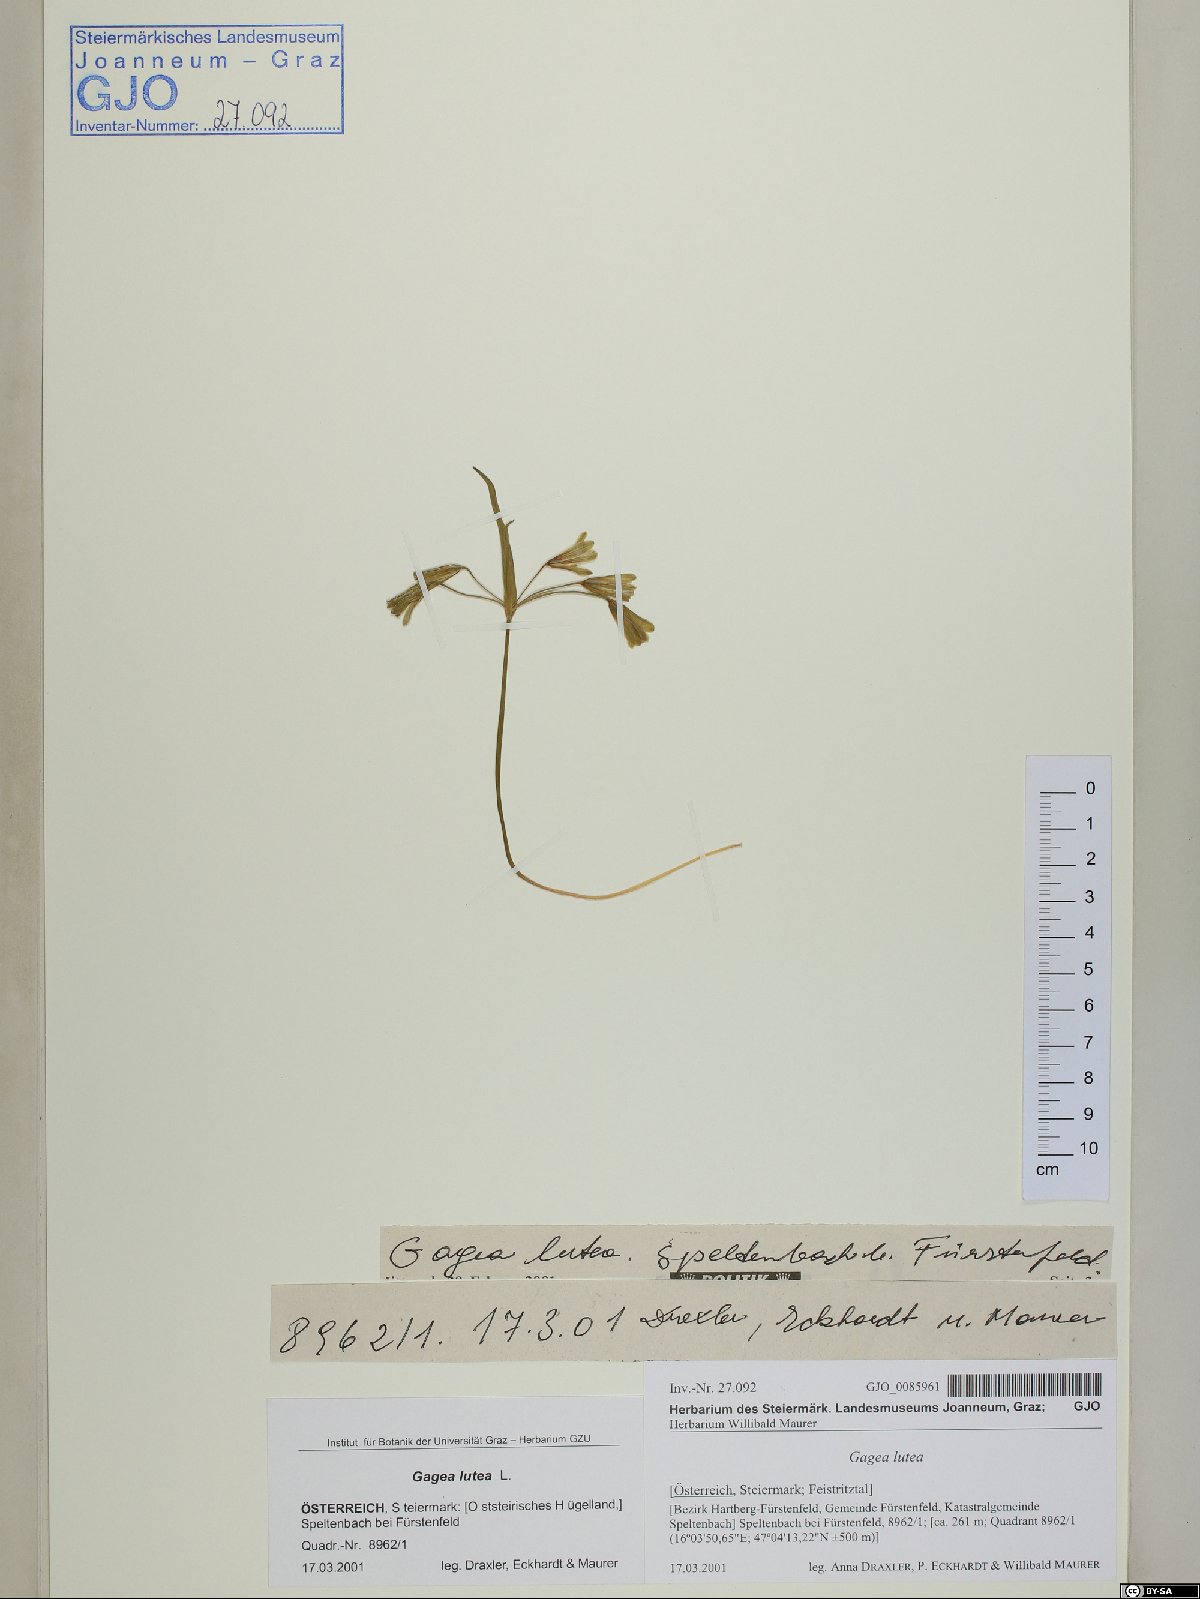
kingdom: Plantae
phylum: Tracheophyta
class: Liliopsida
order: Liliales
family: Liliaceae
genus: Gagea
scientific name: Gagea lutea
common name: Yellow star-of-bethlehem
